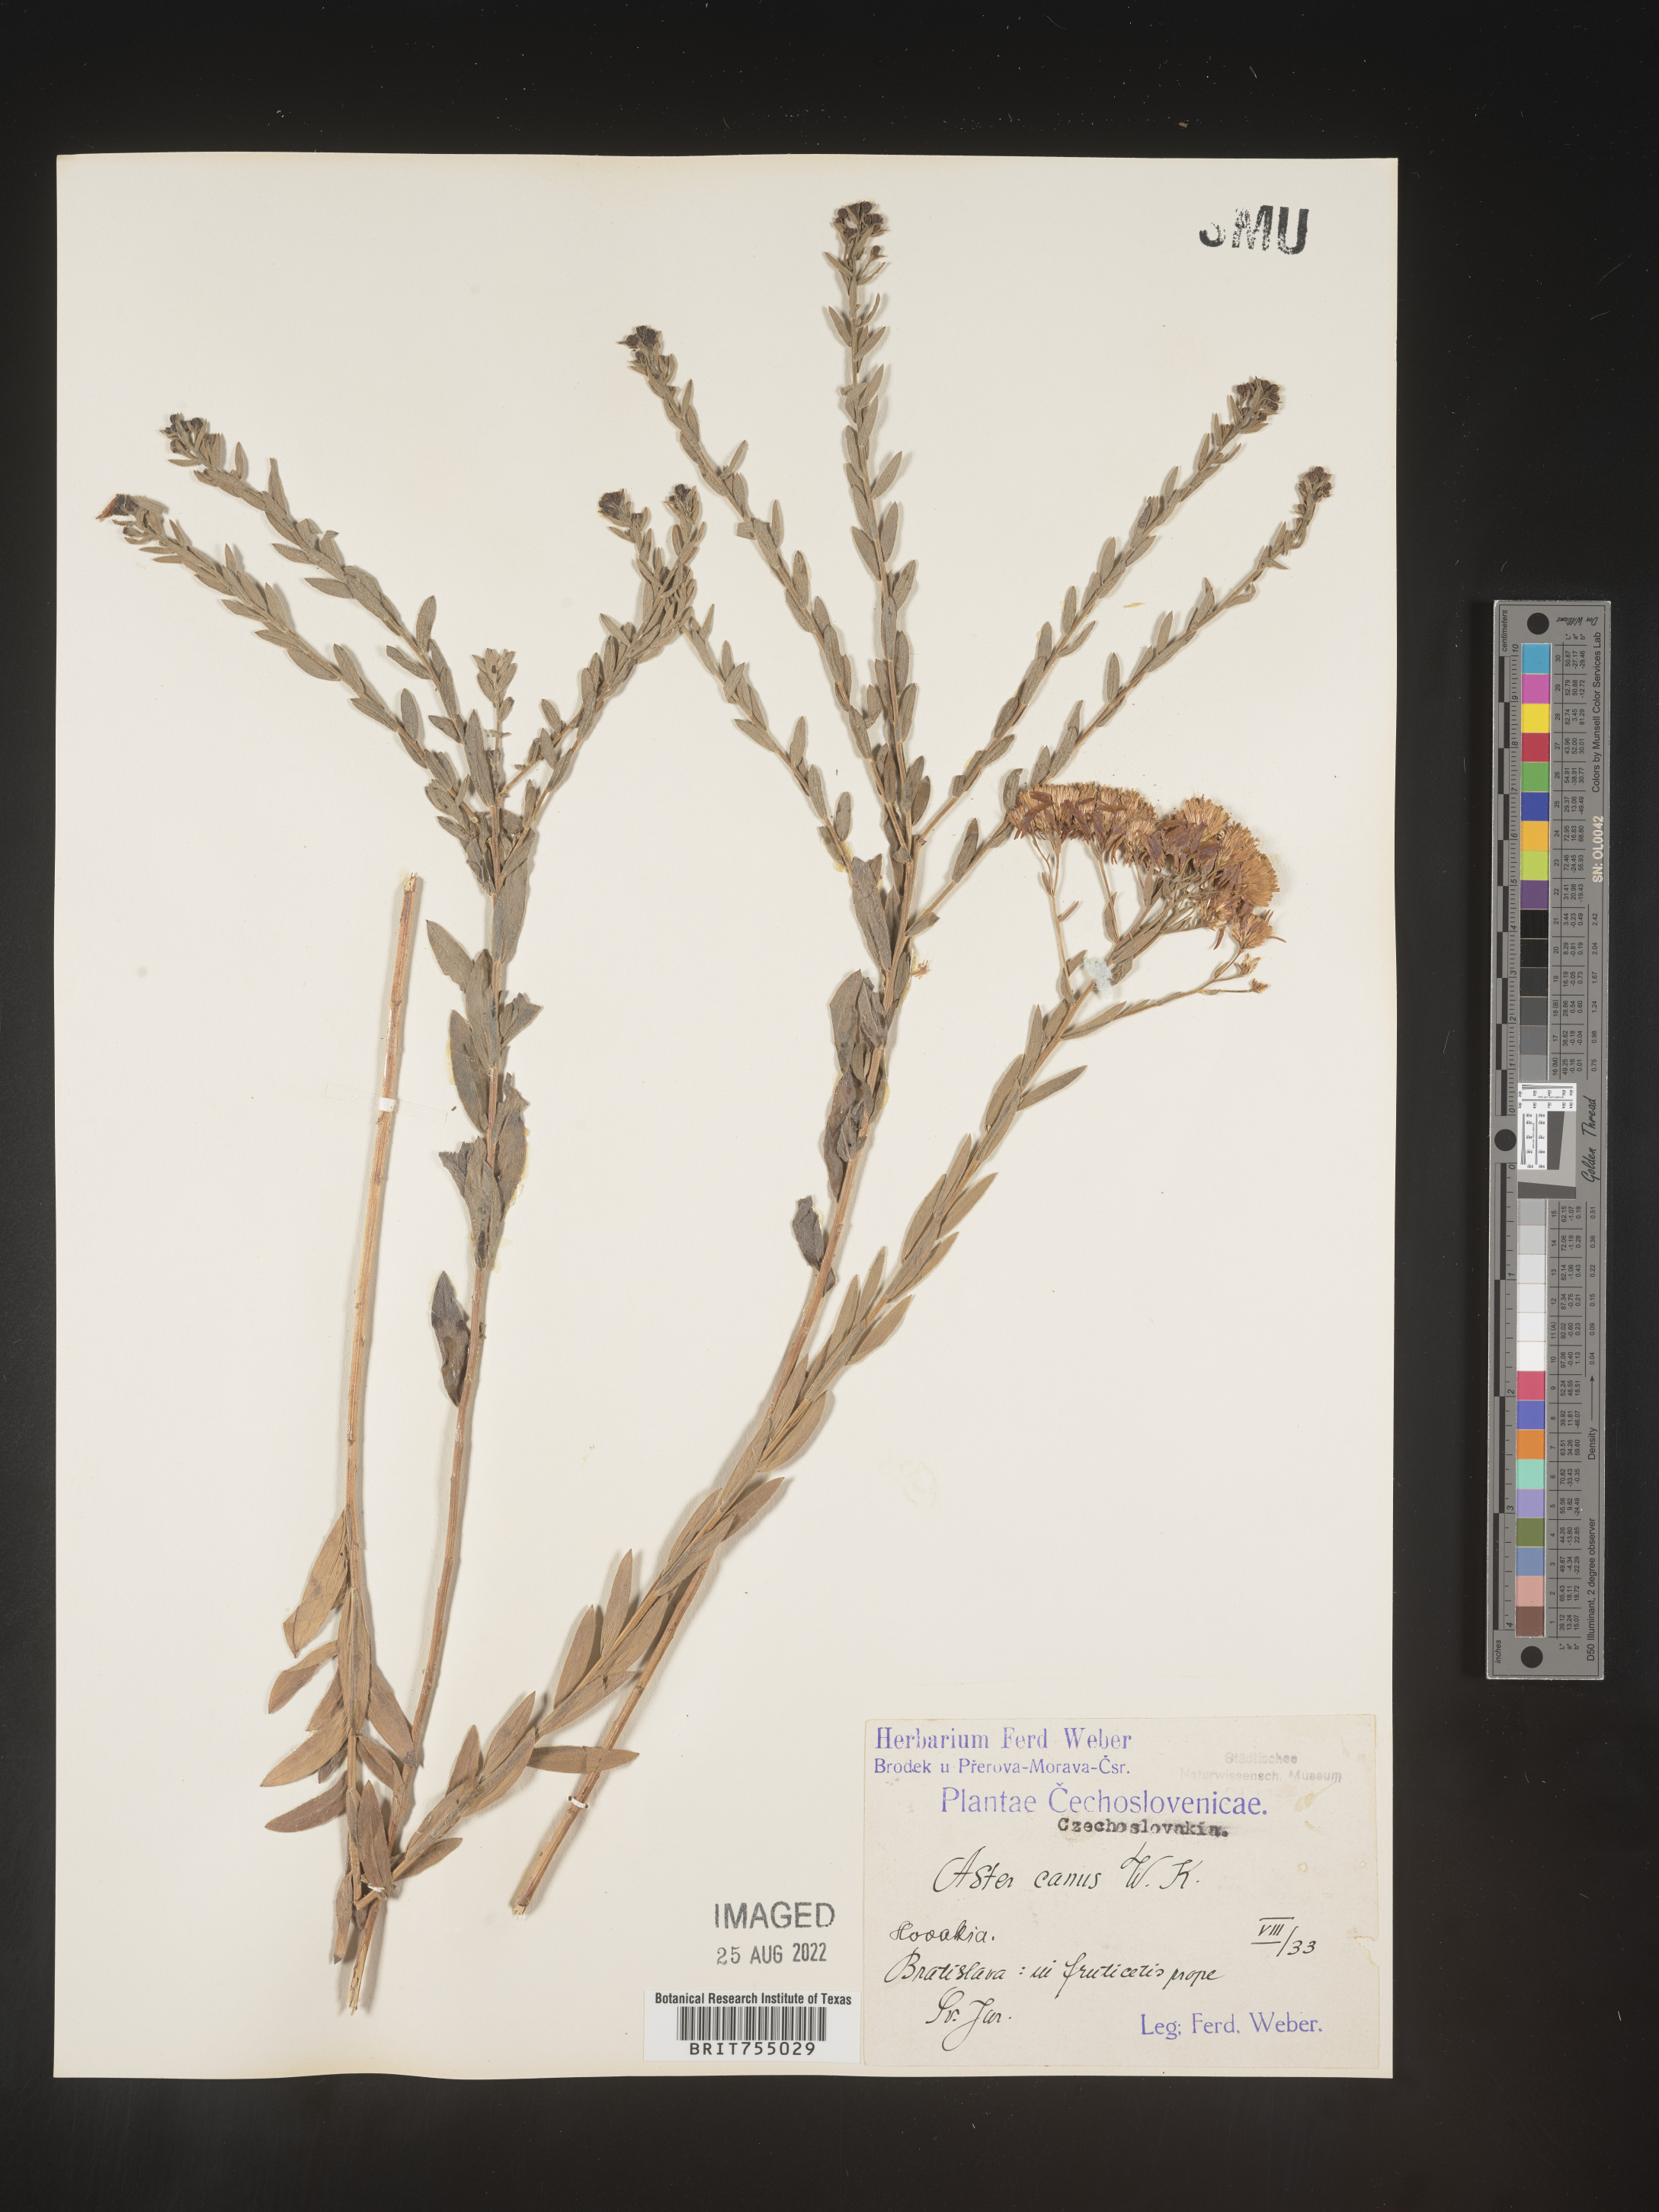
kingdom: Plantae
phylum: Tracheophyta
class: Magnoliopsida
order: Asterales
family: Asteraceae
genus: Symphyotrichum
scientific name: Symphyotrichum
